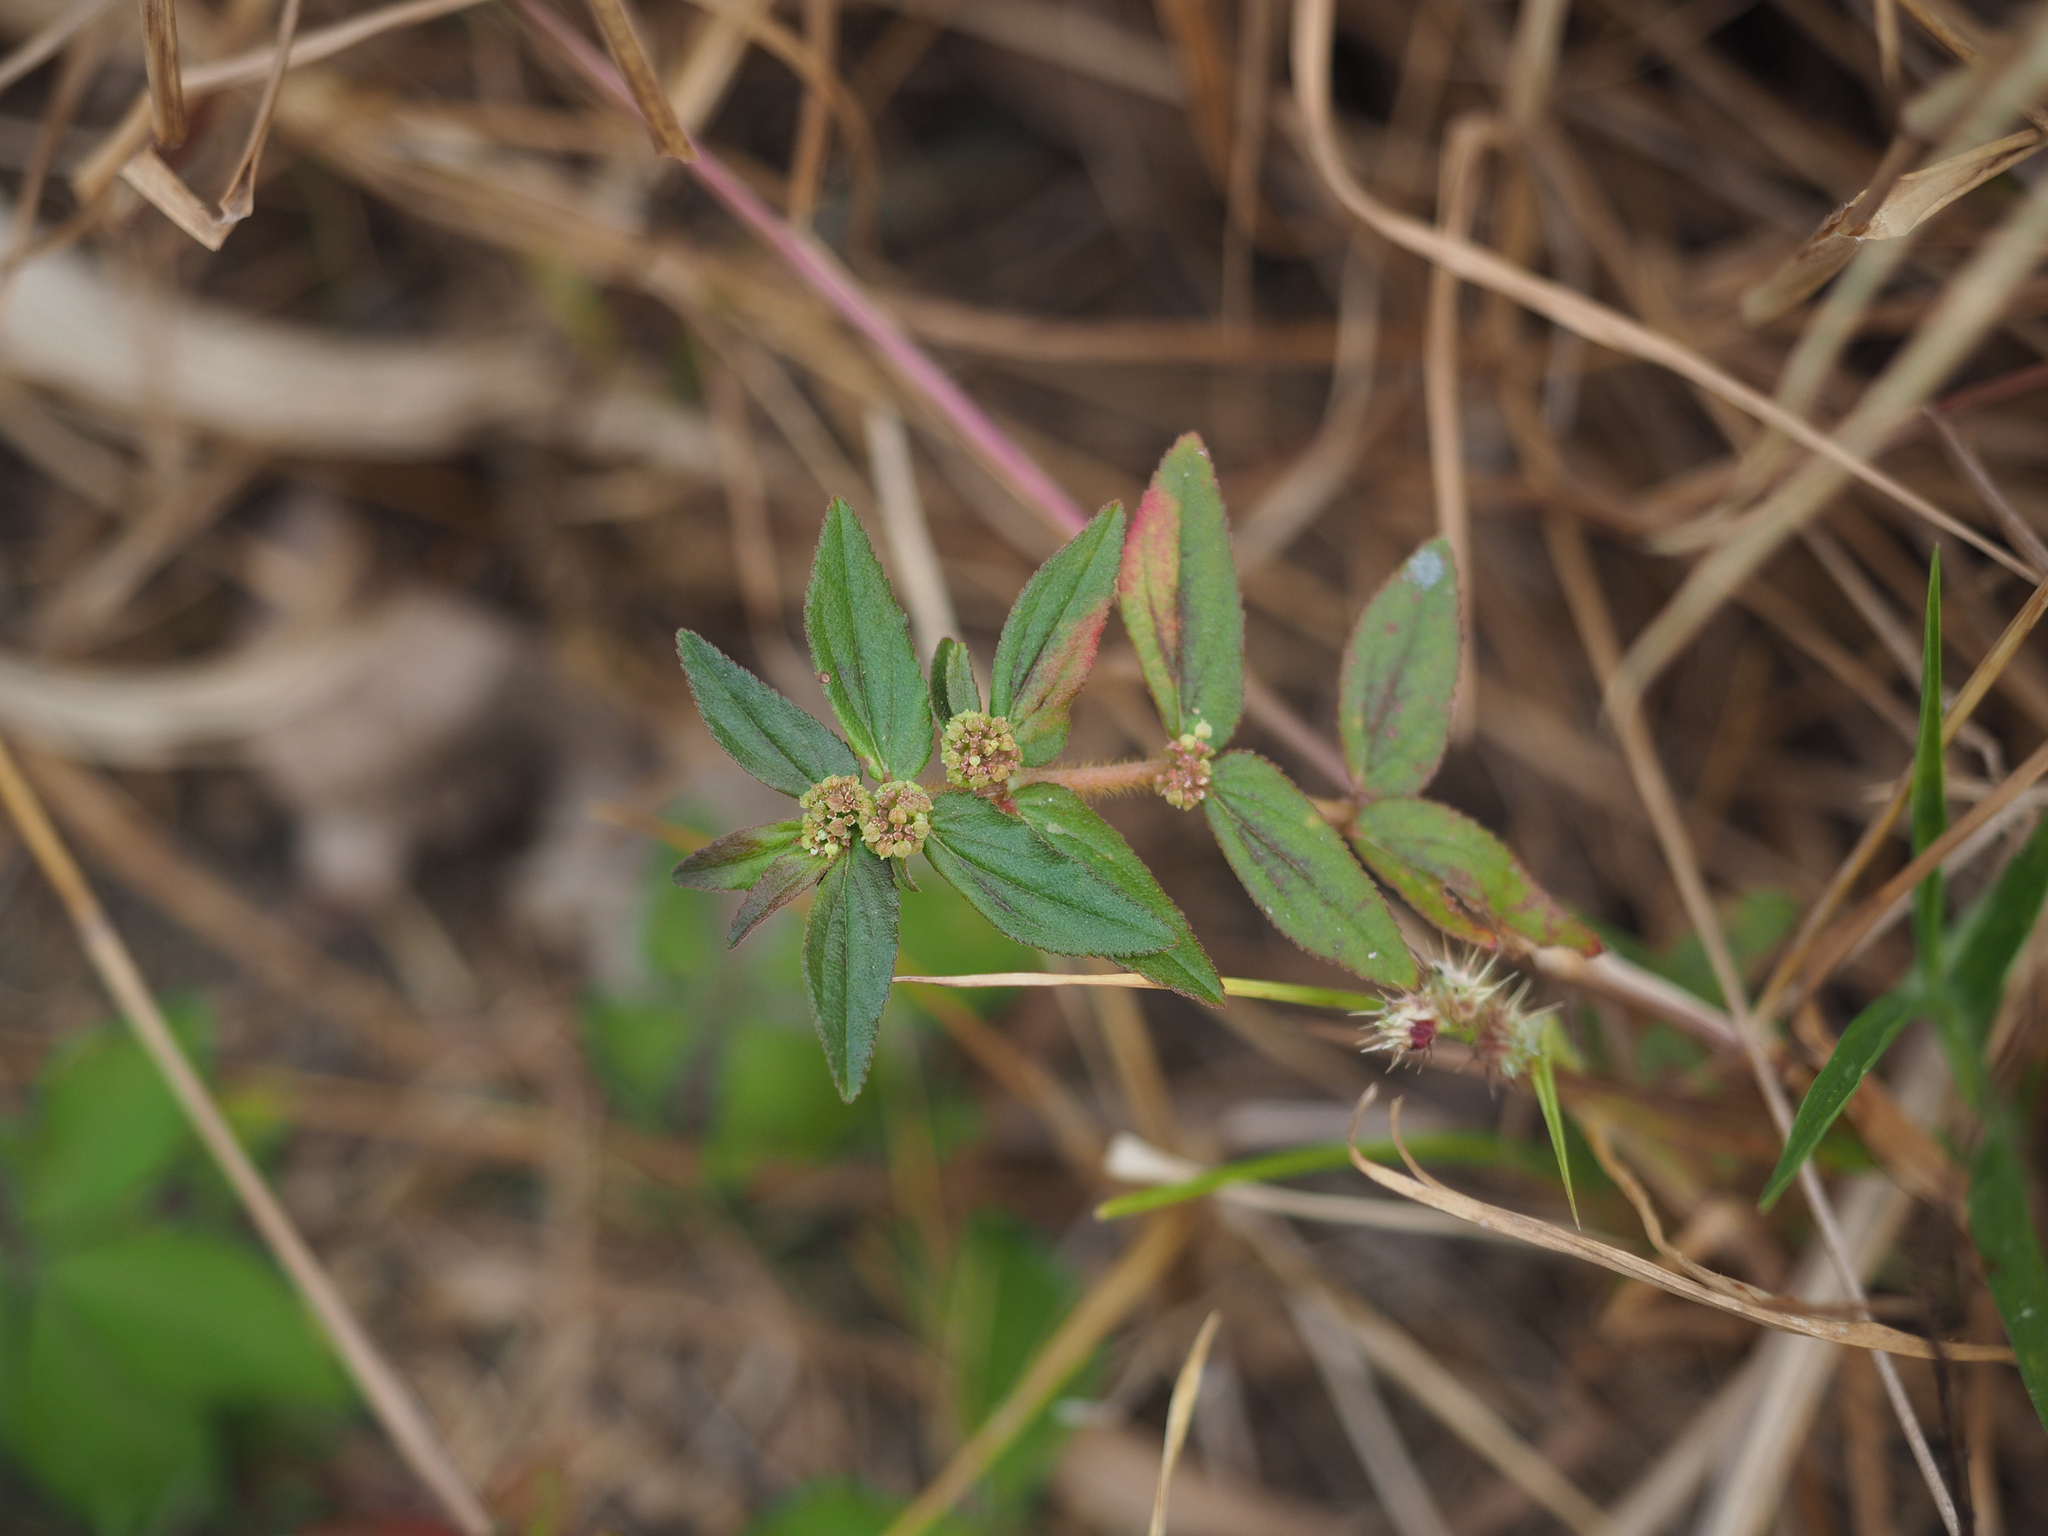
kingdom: Plantae
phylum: Tracheophyta
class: Magnoliopsida
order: Malpighiales
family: Euphorbiaceae
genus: Euphorbia
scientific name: Euphorbia hirta
